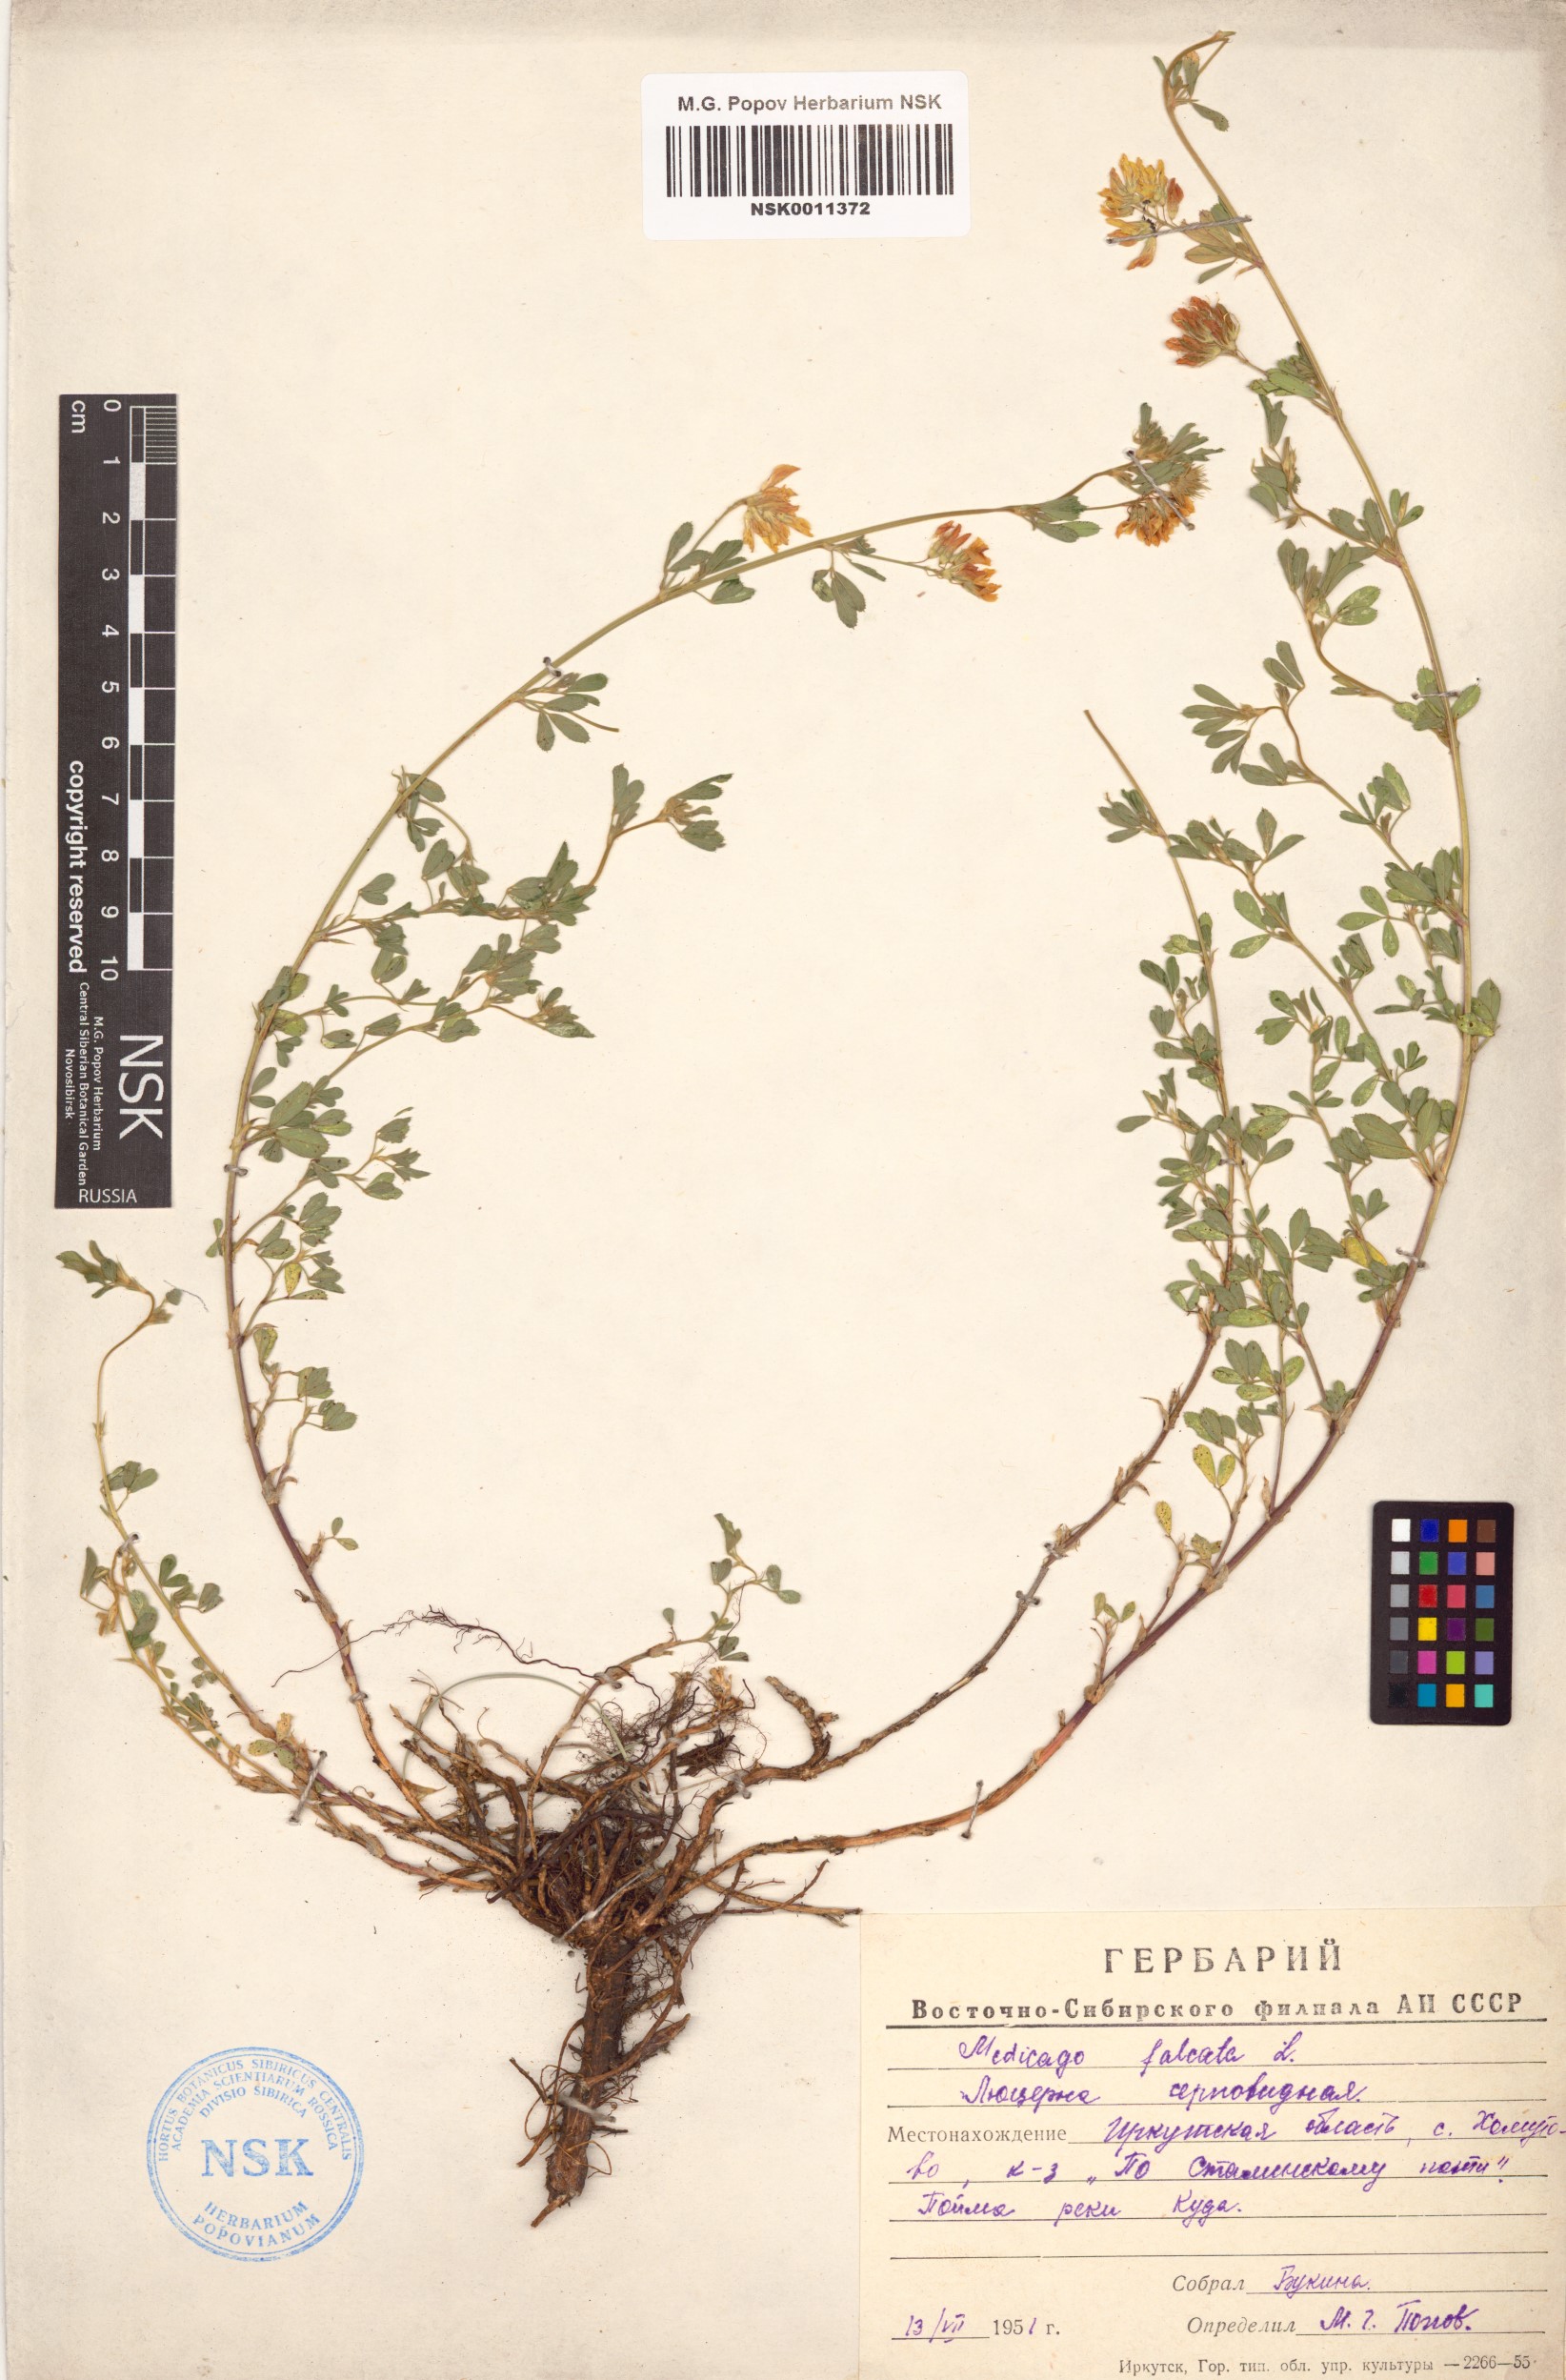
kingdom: Plantae
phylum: Tracheophyta
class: Magnoliopsida
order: Fabales
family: Fabaceae
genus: Medicago
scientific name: Medicago falcata
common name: Sickle medick
